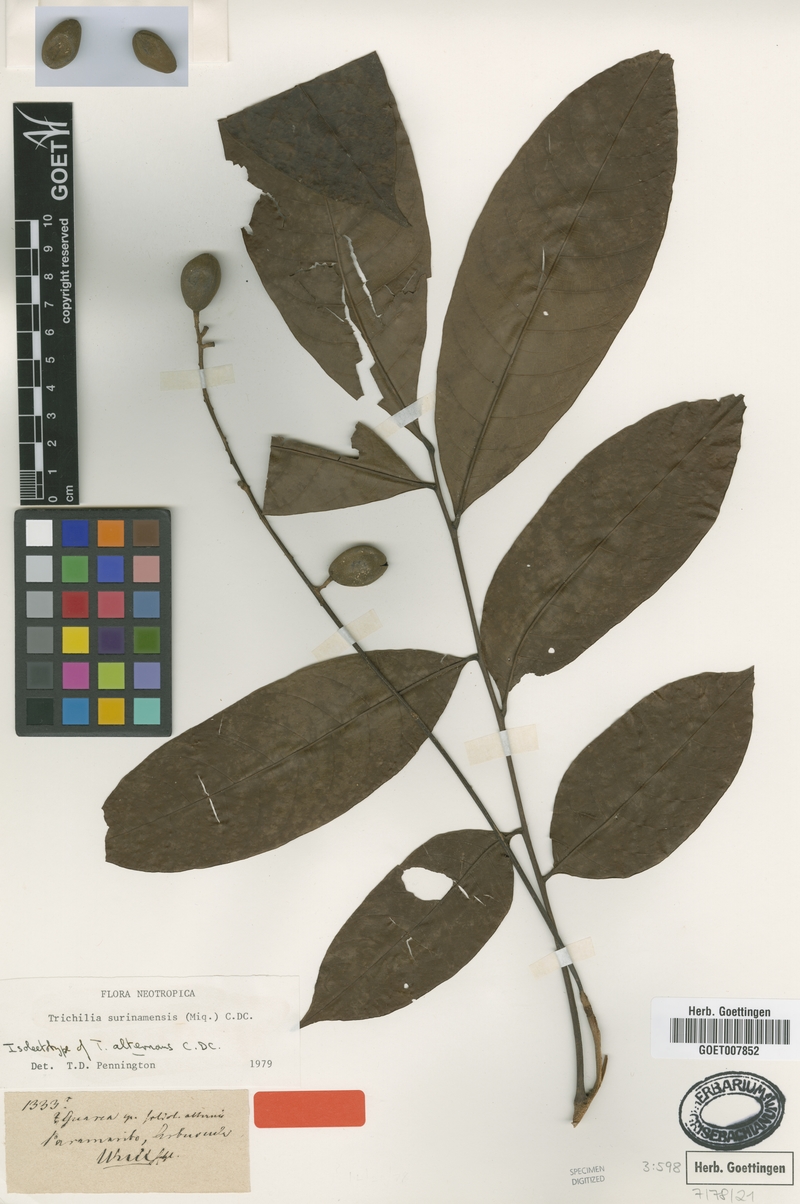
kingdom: Plantae
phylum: Tracheophyta
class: Magnoliopsida
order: Sapindales
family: Meliaceae
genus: Trichilia
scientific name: Trichilia surinamensis
